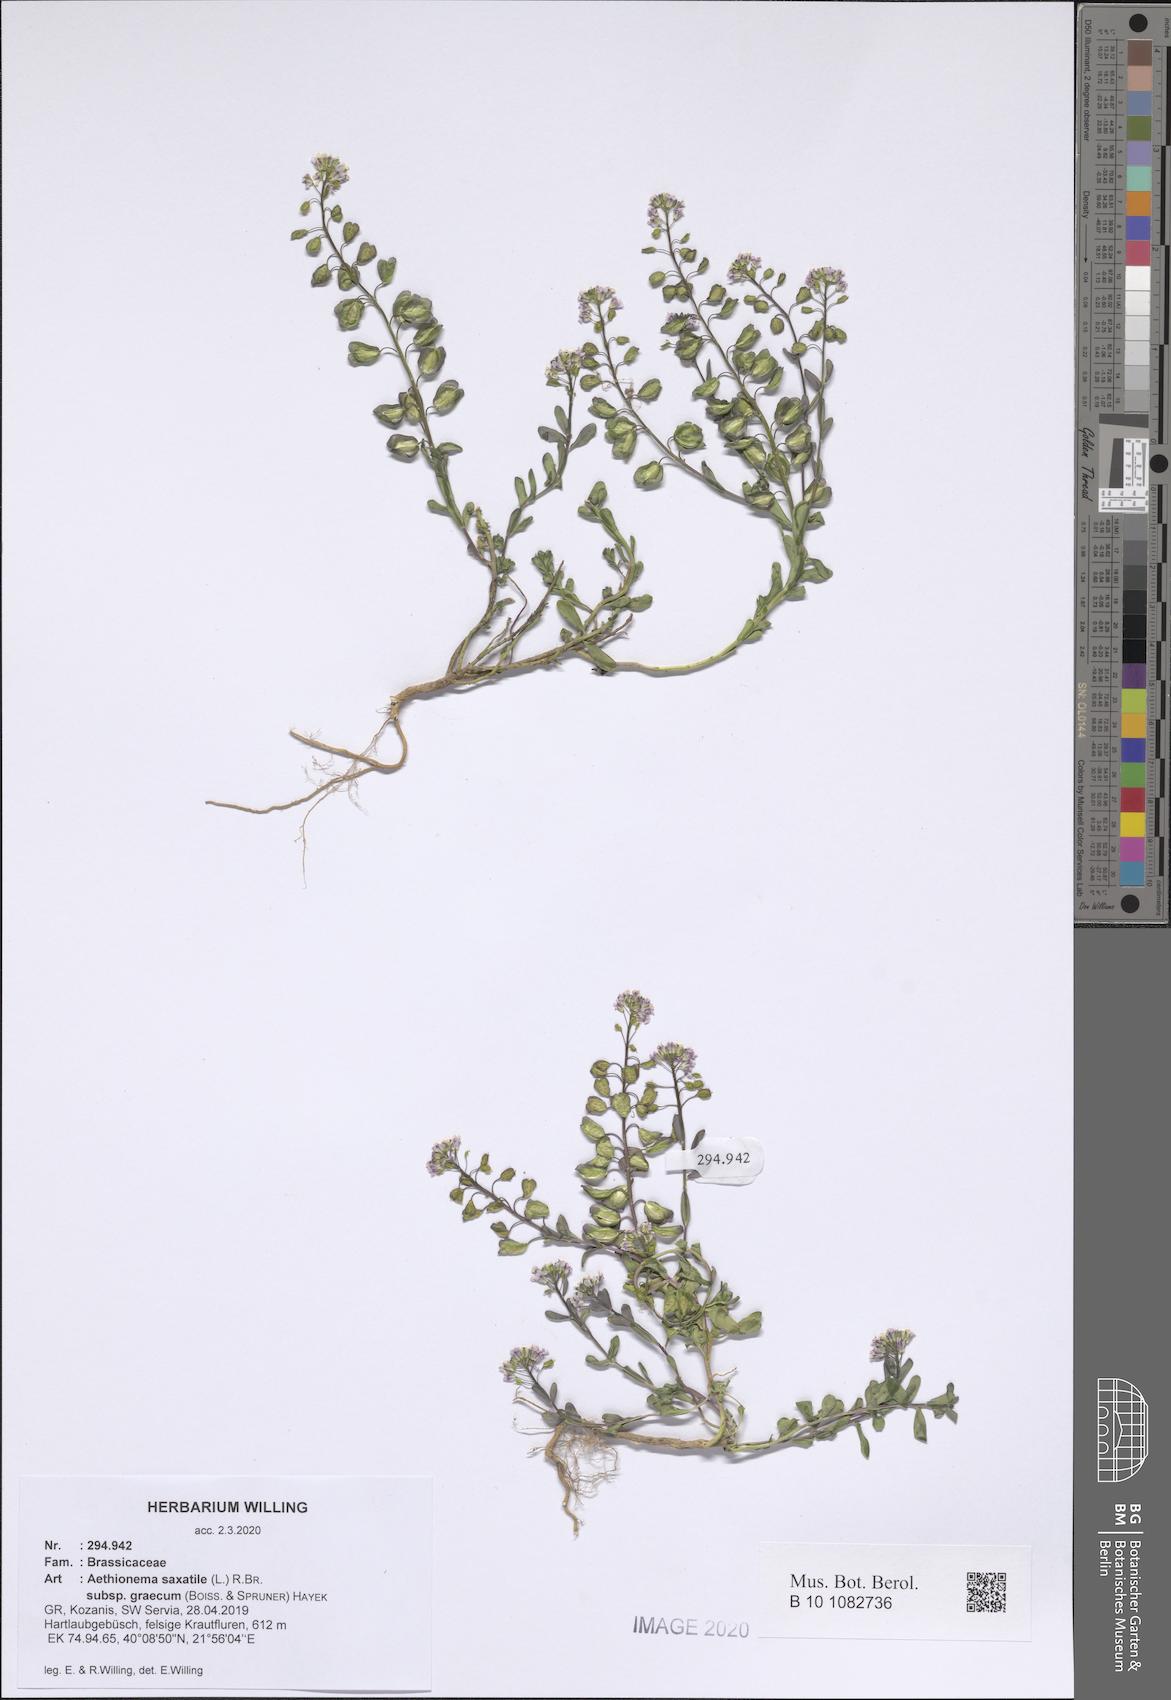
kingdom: Plantae
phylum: Tracheophyta
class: Magnoliopsida
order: Brassicales
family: Brassicaceae
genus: Aethionema
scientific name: Aethionema saxatile
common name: Burnt candytuft
